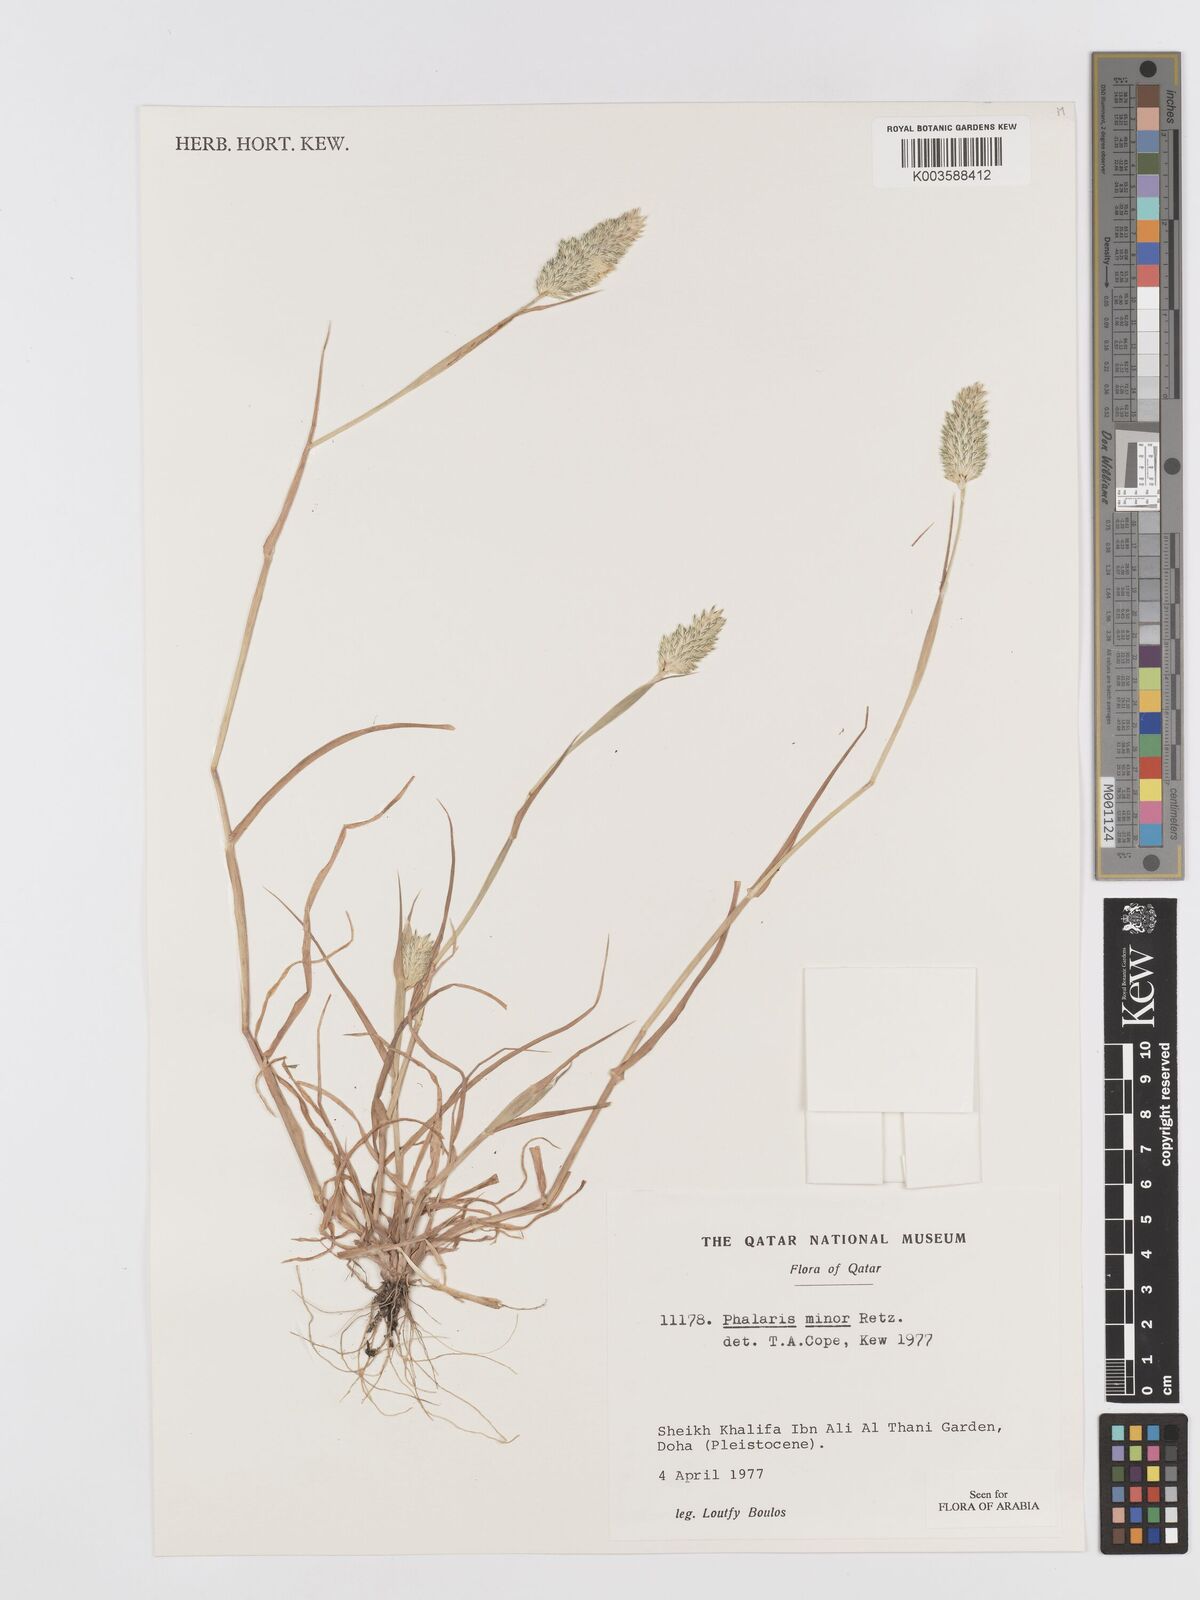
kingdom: Plantae
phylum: Tracheophyta
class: Liliopsida
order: Poales
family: Poaceae
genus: Phalaris
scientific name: Phalaris minor
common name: Littleseed canarygrass
